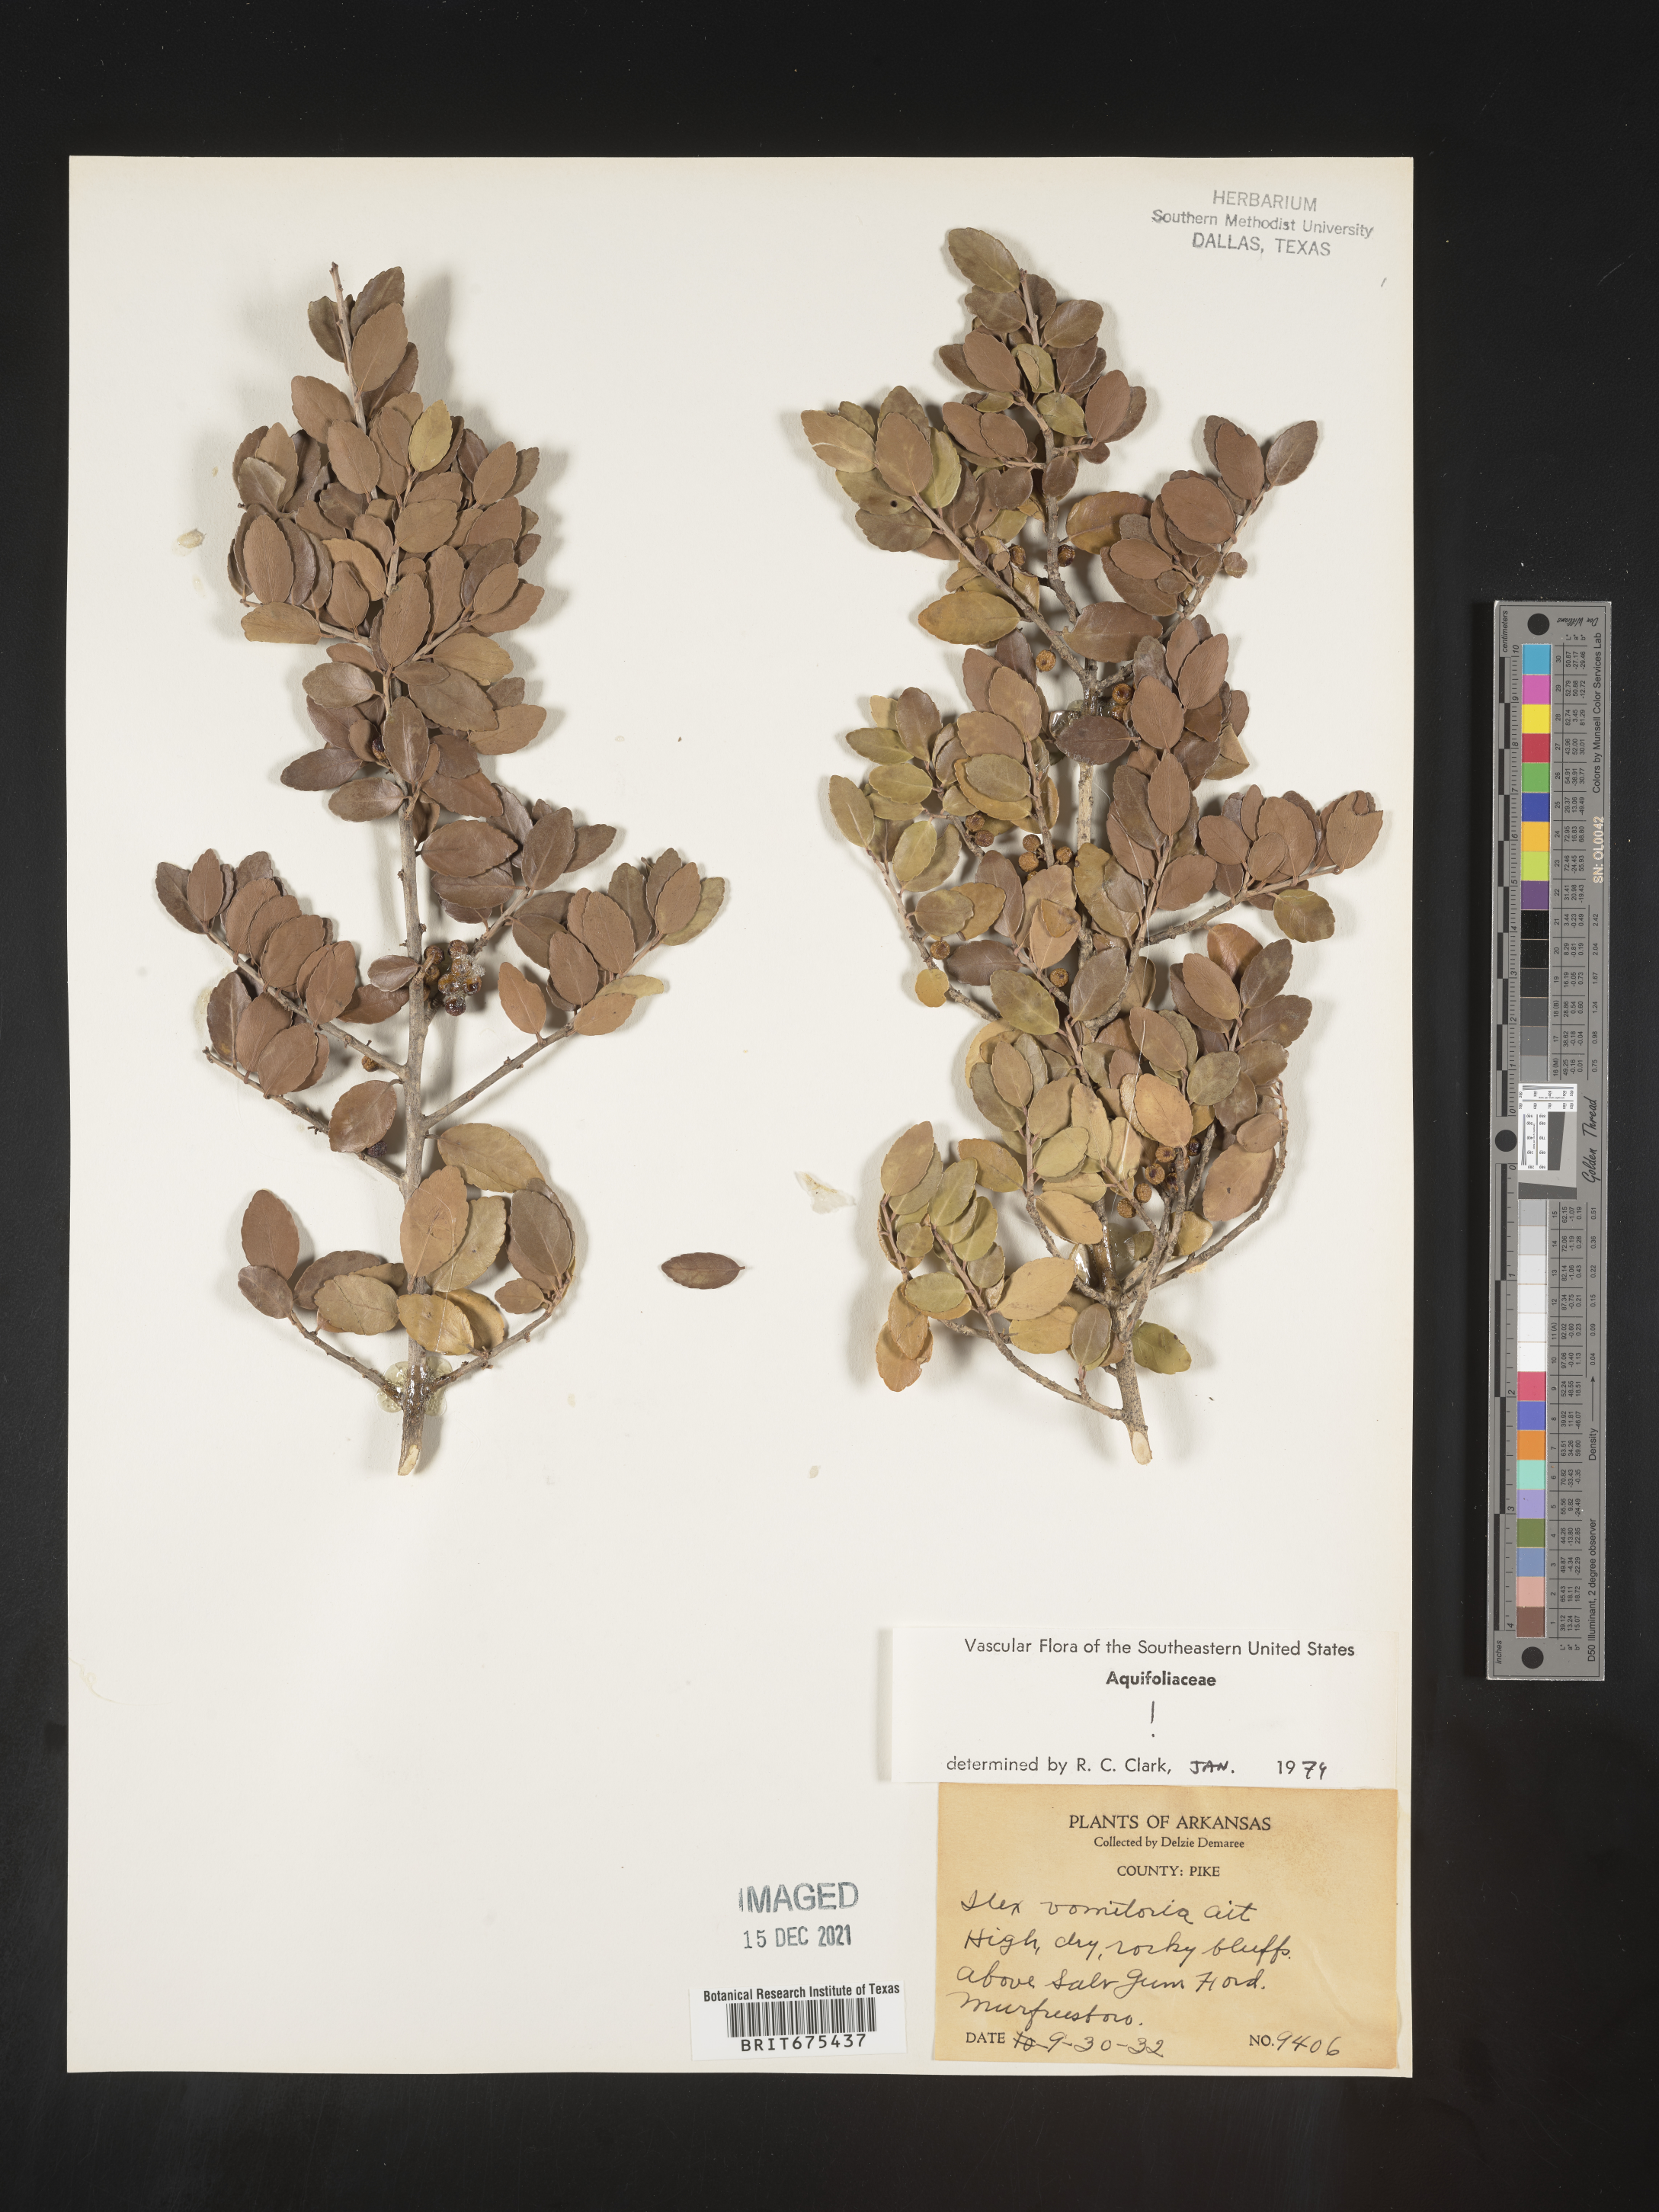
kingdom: Plantae
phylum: Tracheophyta
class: Magnoliopsida
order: Aquifoliales
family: Aquifoliaceae
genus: Ilex
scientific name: Ilex vomitoria
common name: Yaupon holly
